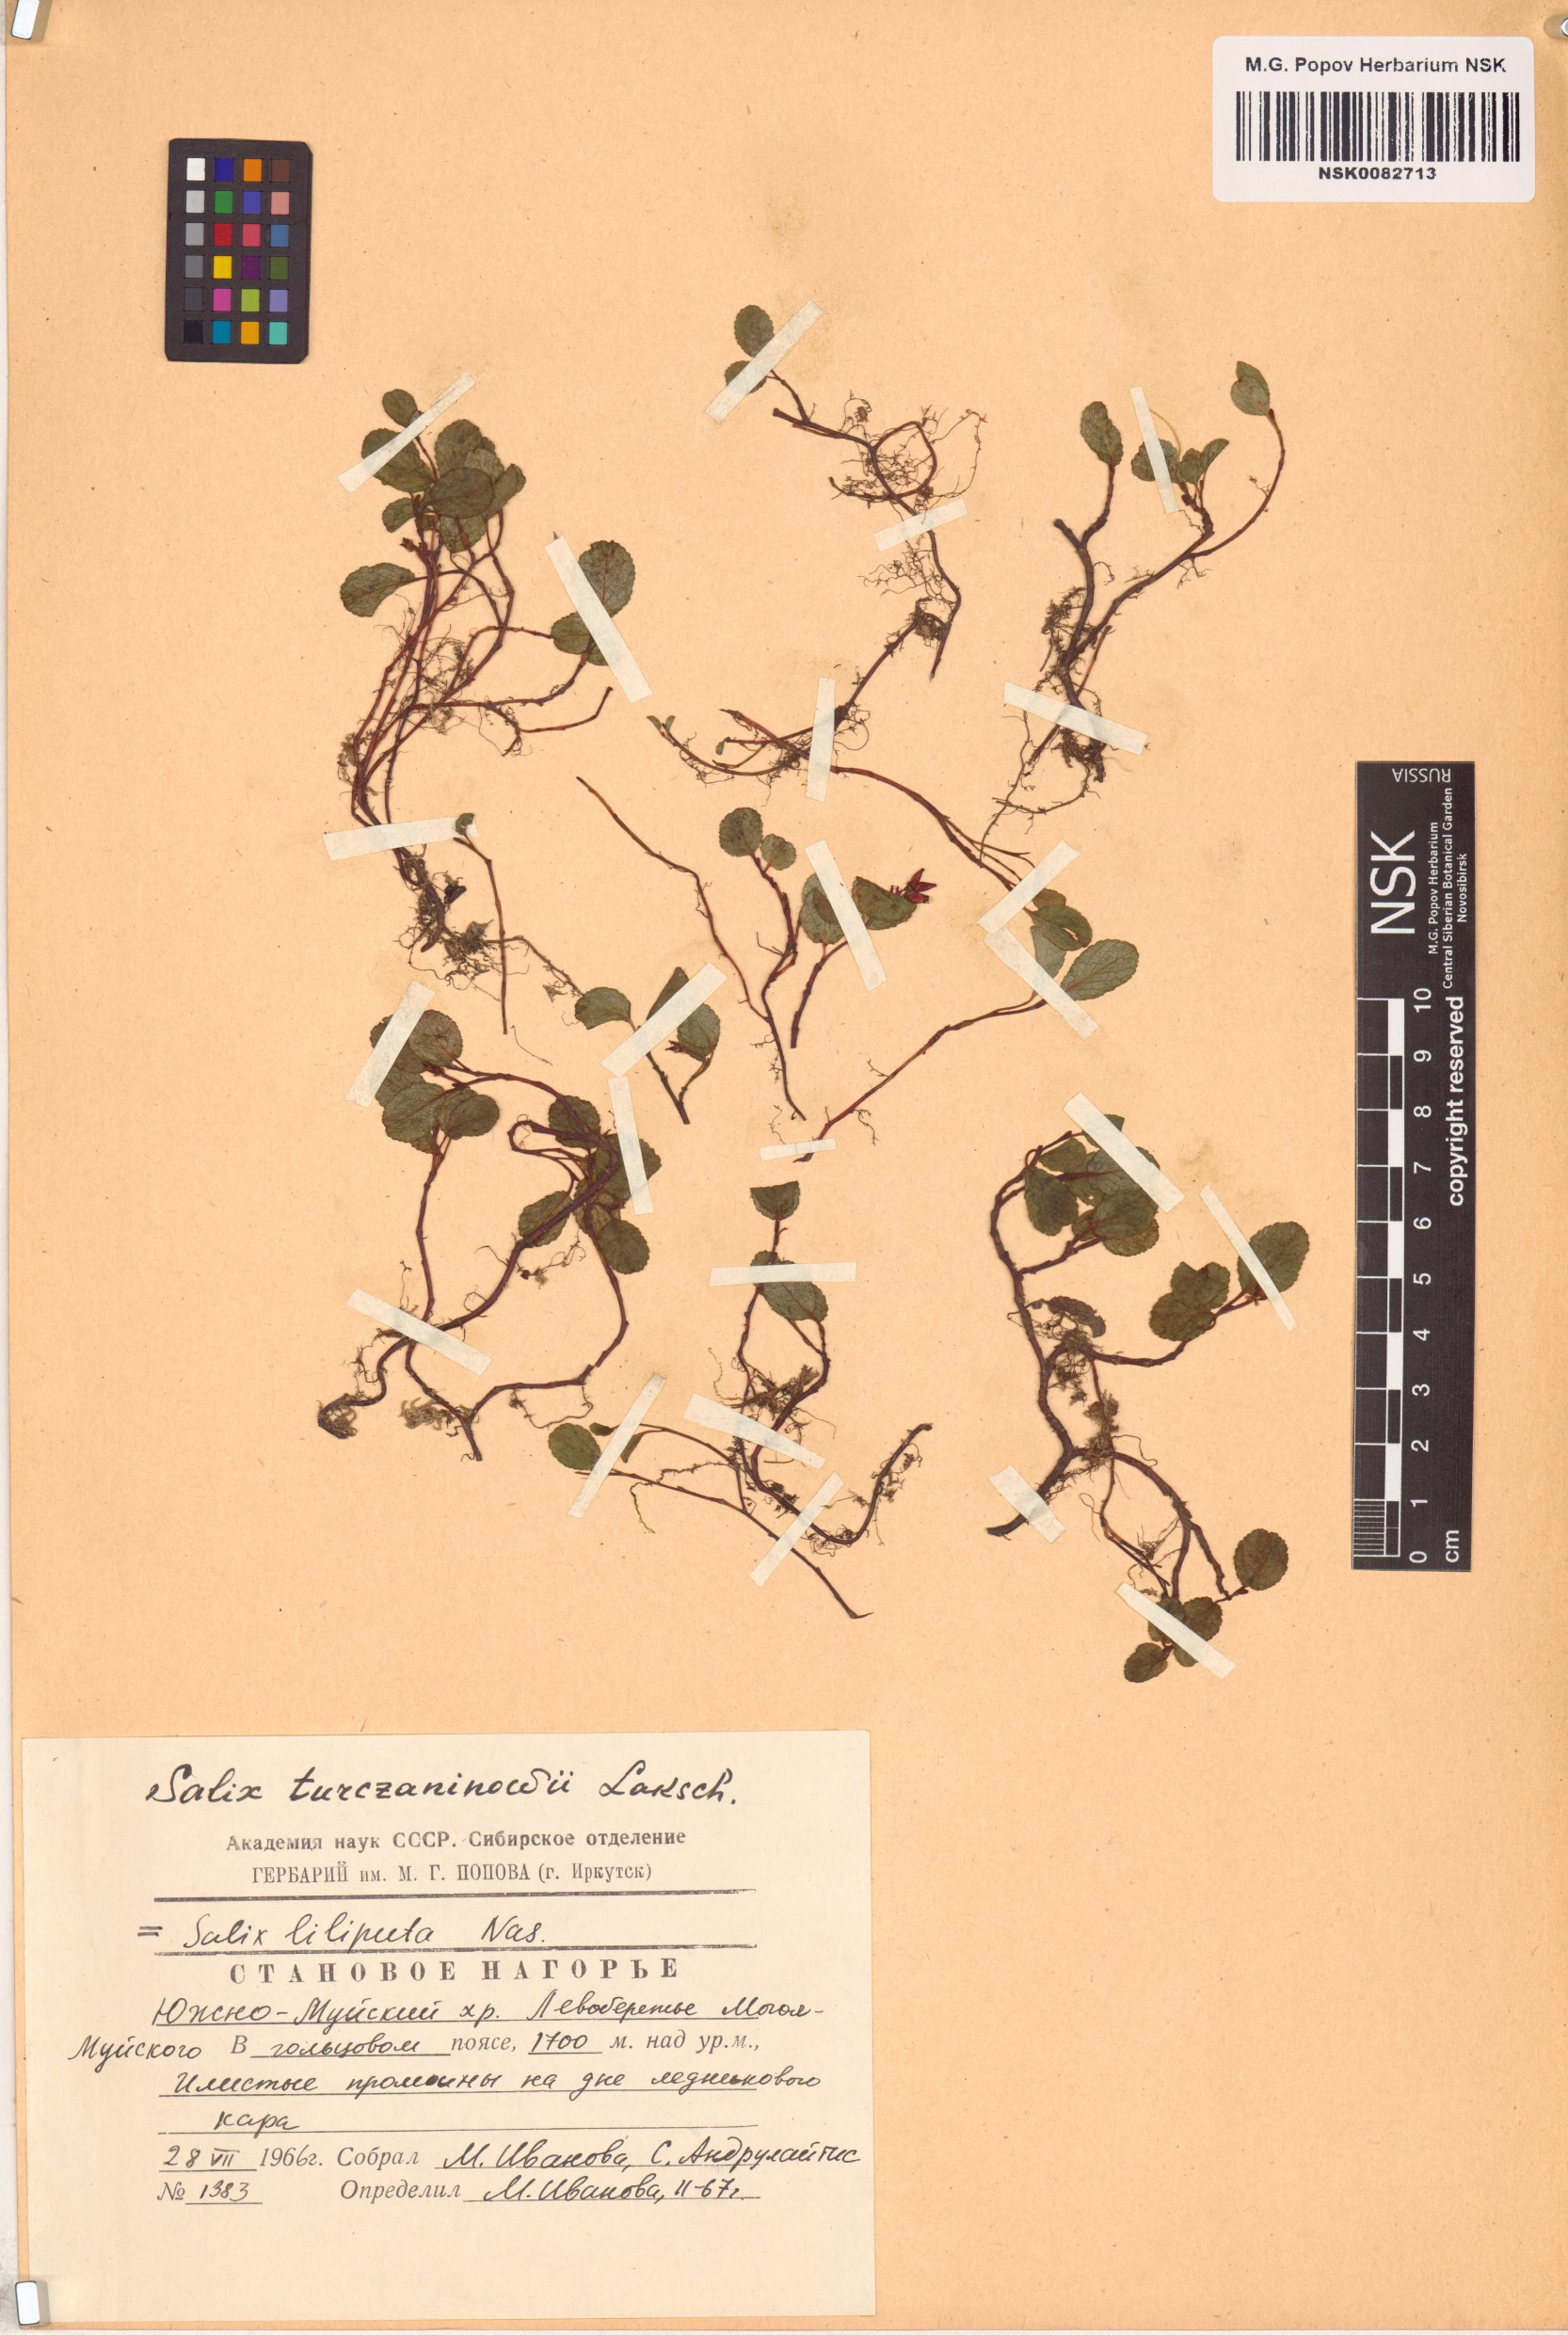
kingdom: Plantae
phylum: Tracheophyta
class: Magnoliopsida
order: Malpighiales
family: Salicaceae
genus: Salix
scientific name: Salix turczaninowii
